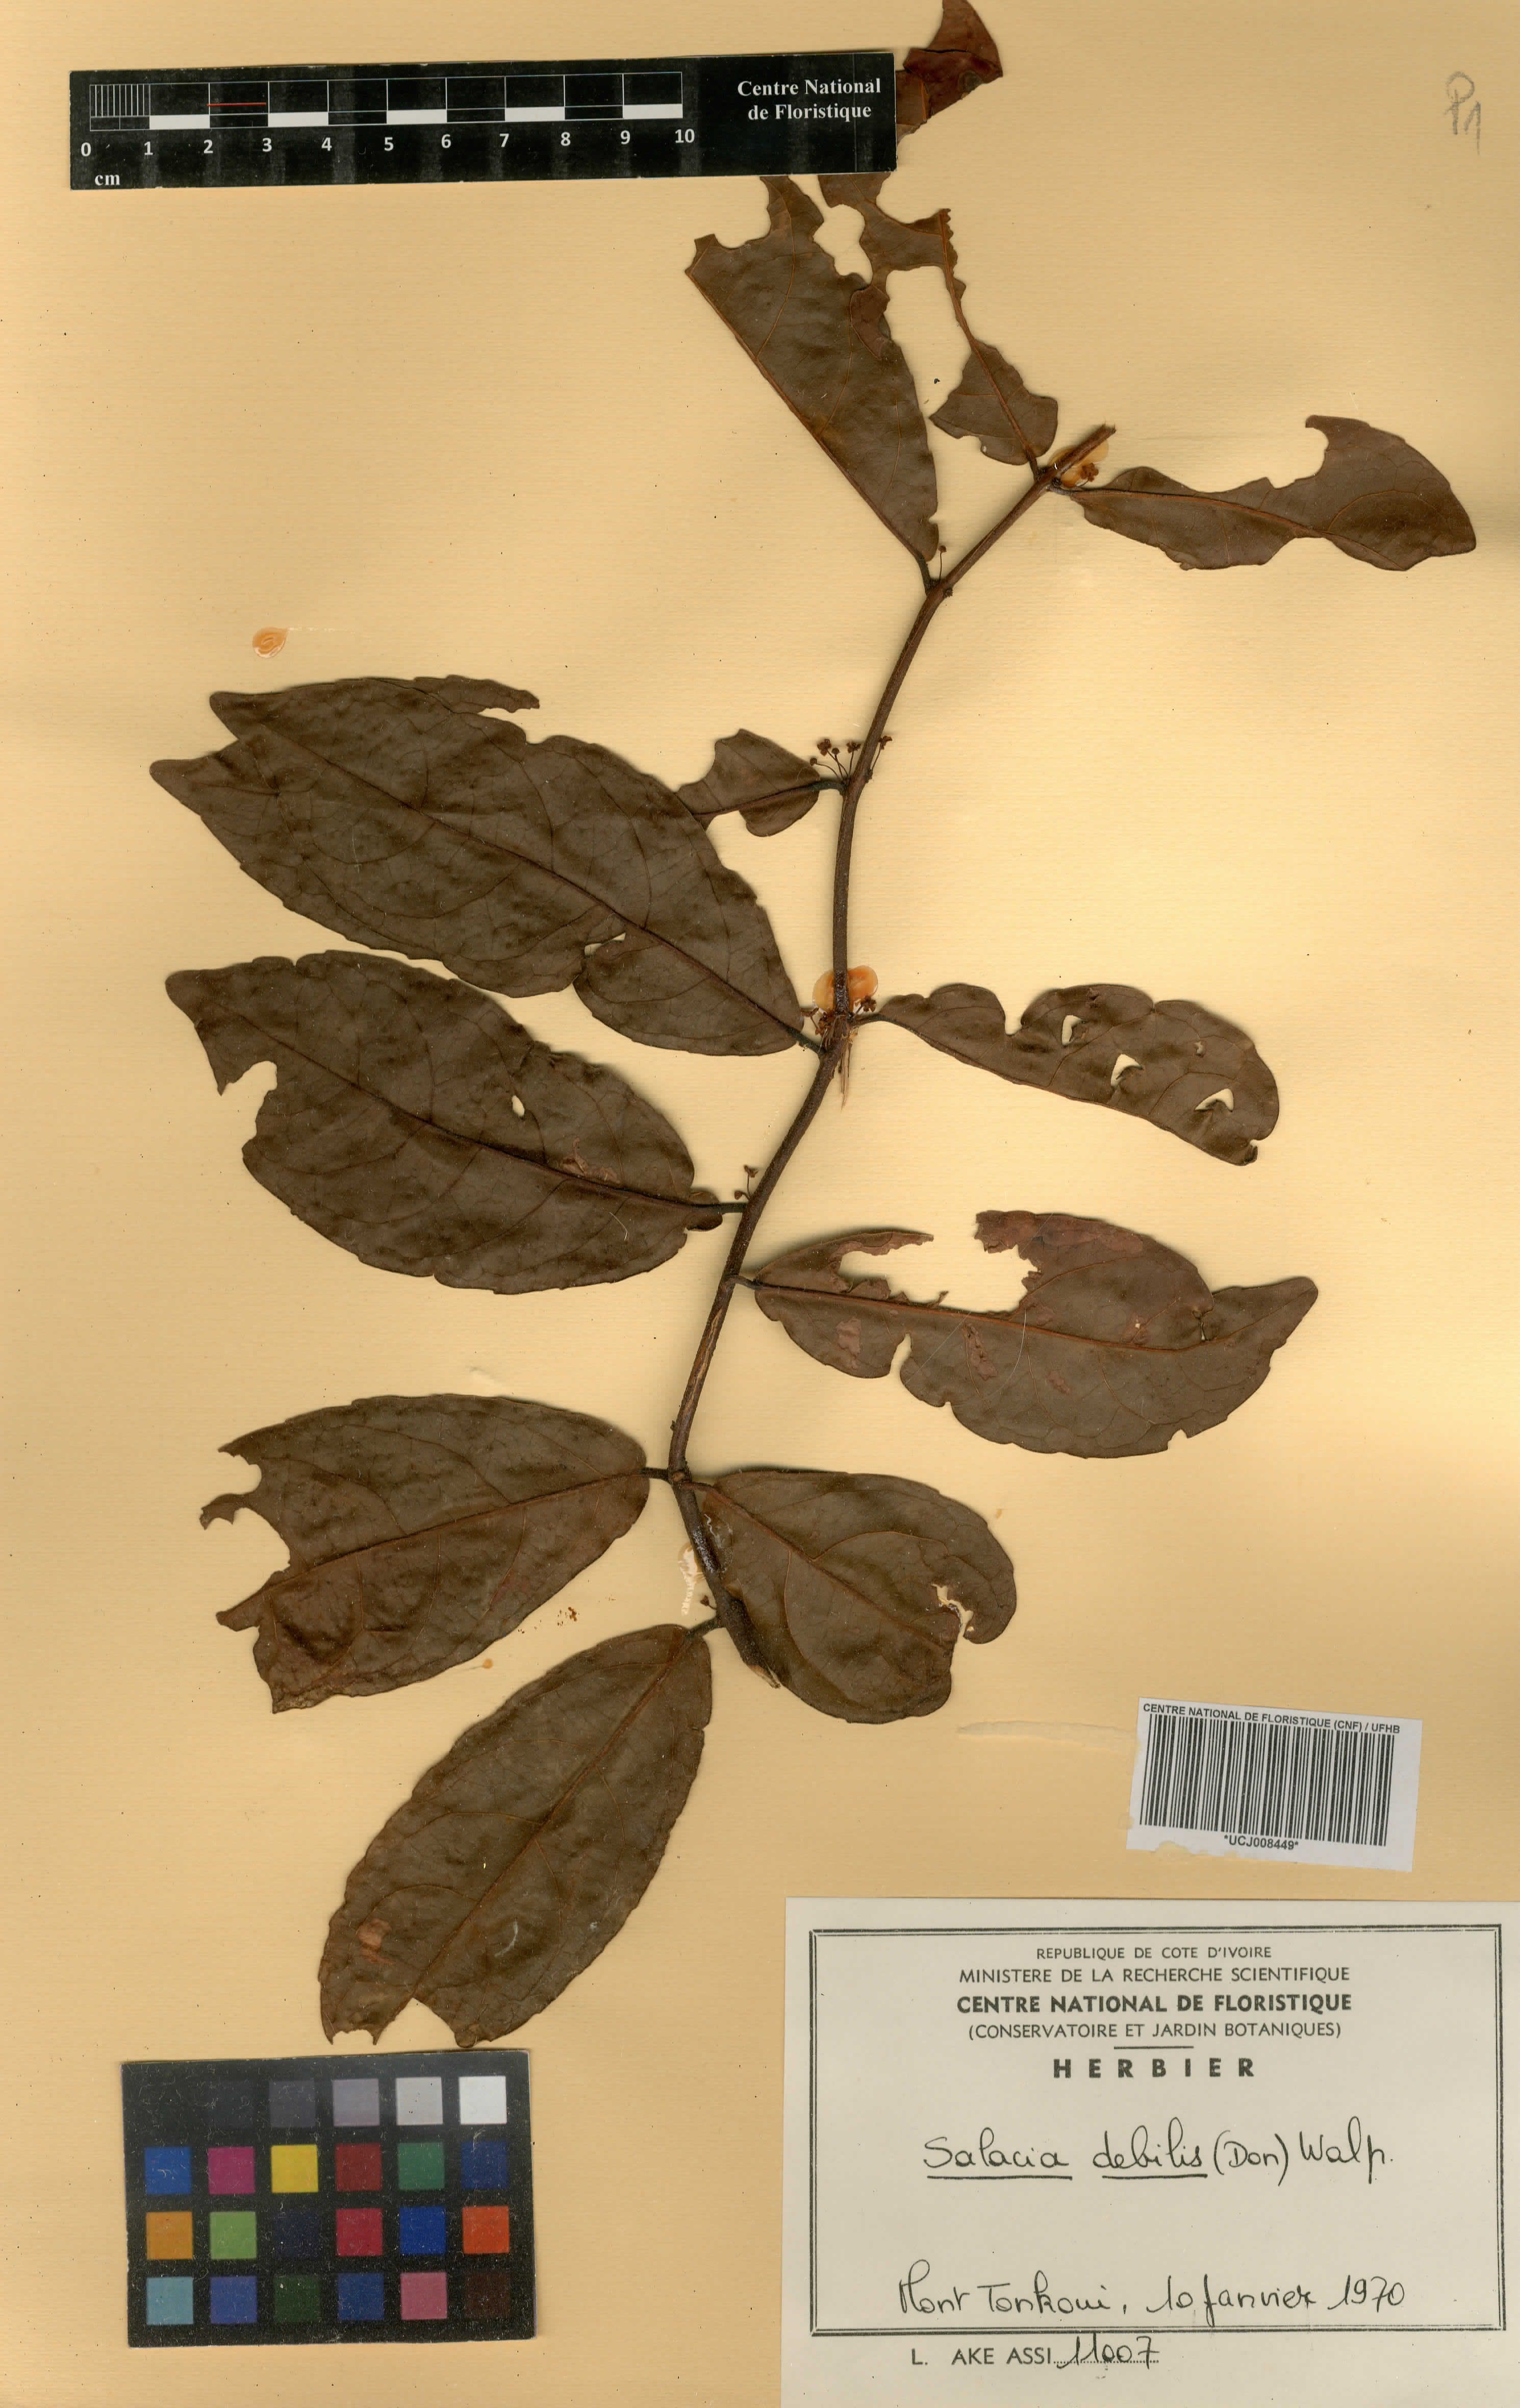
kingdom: Plantae
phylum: Tracheophyta
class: Magnoliopsida
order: Celastrales
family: Celastraceae
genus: Salacia
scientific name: Salacia debilis
